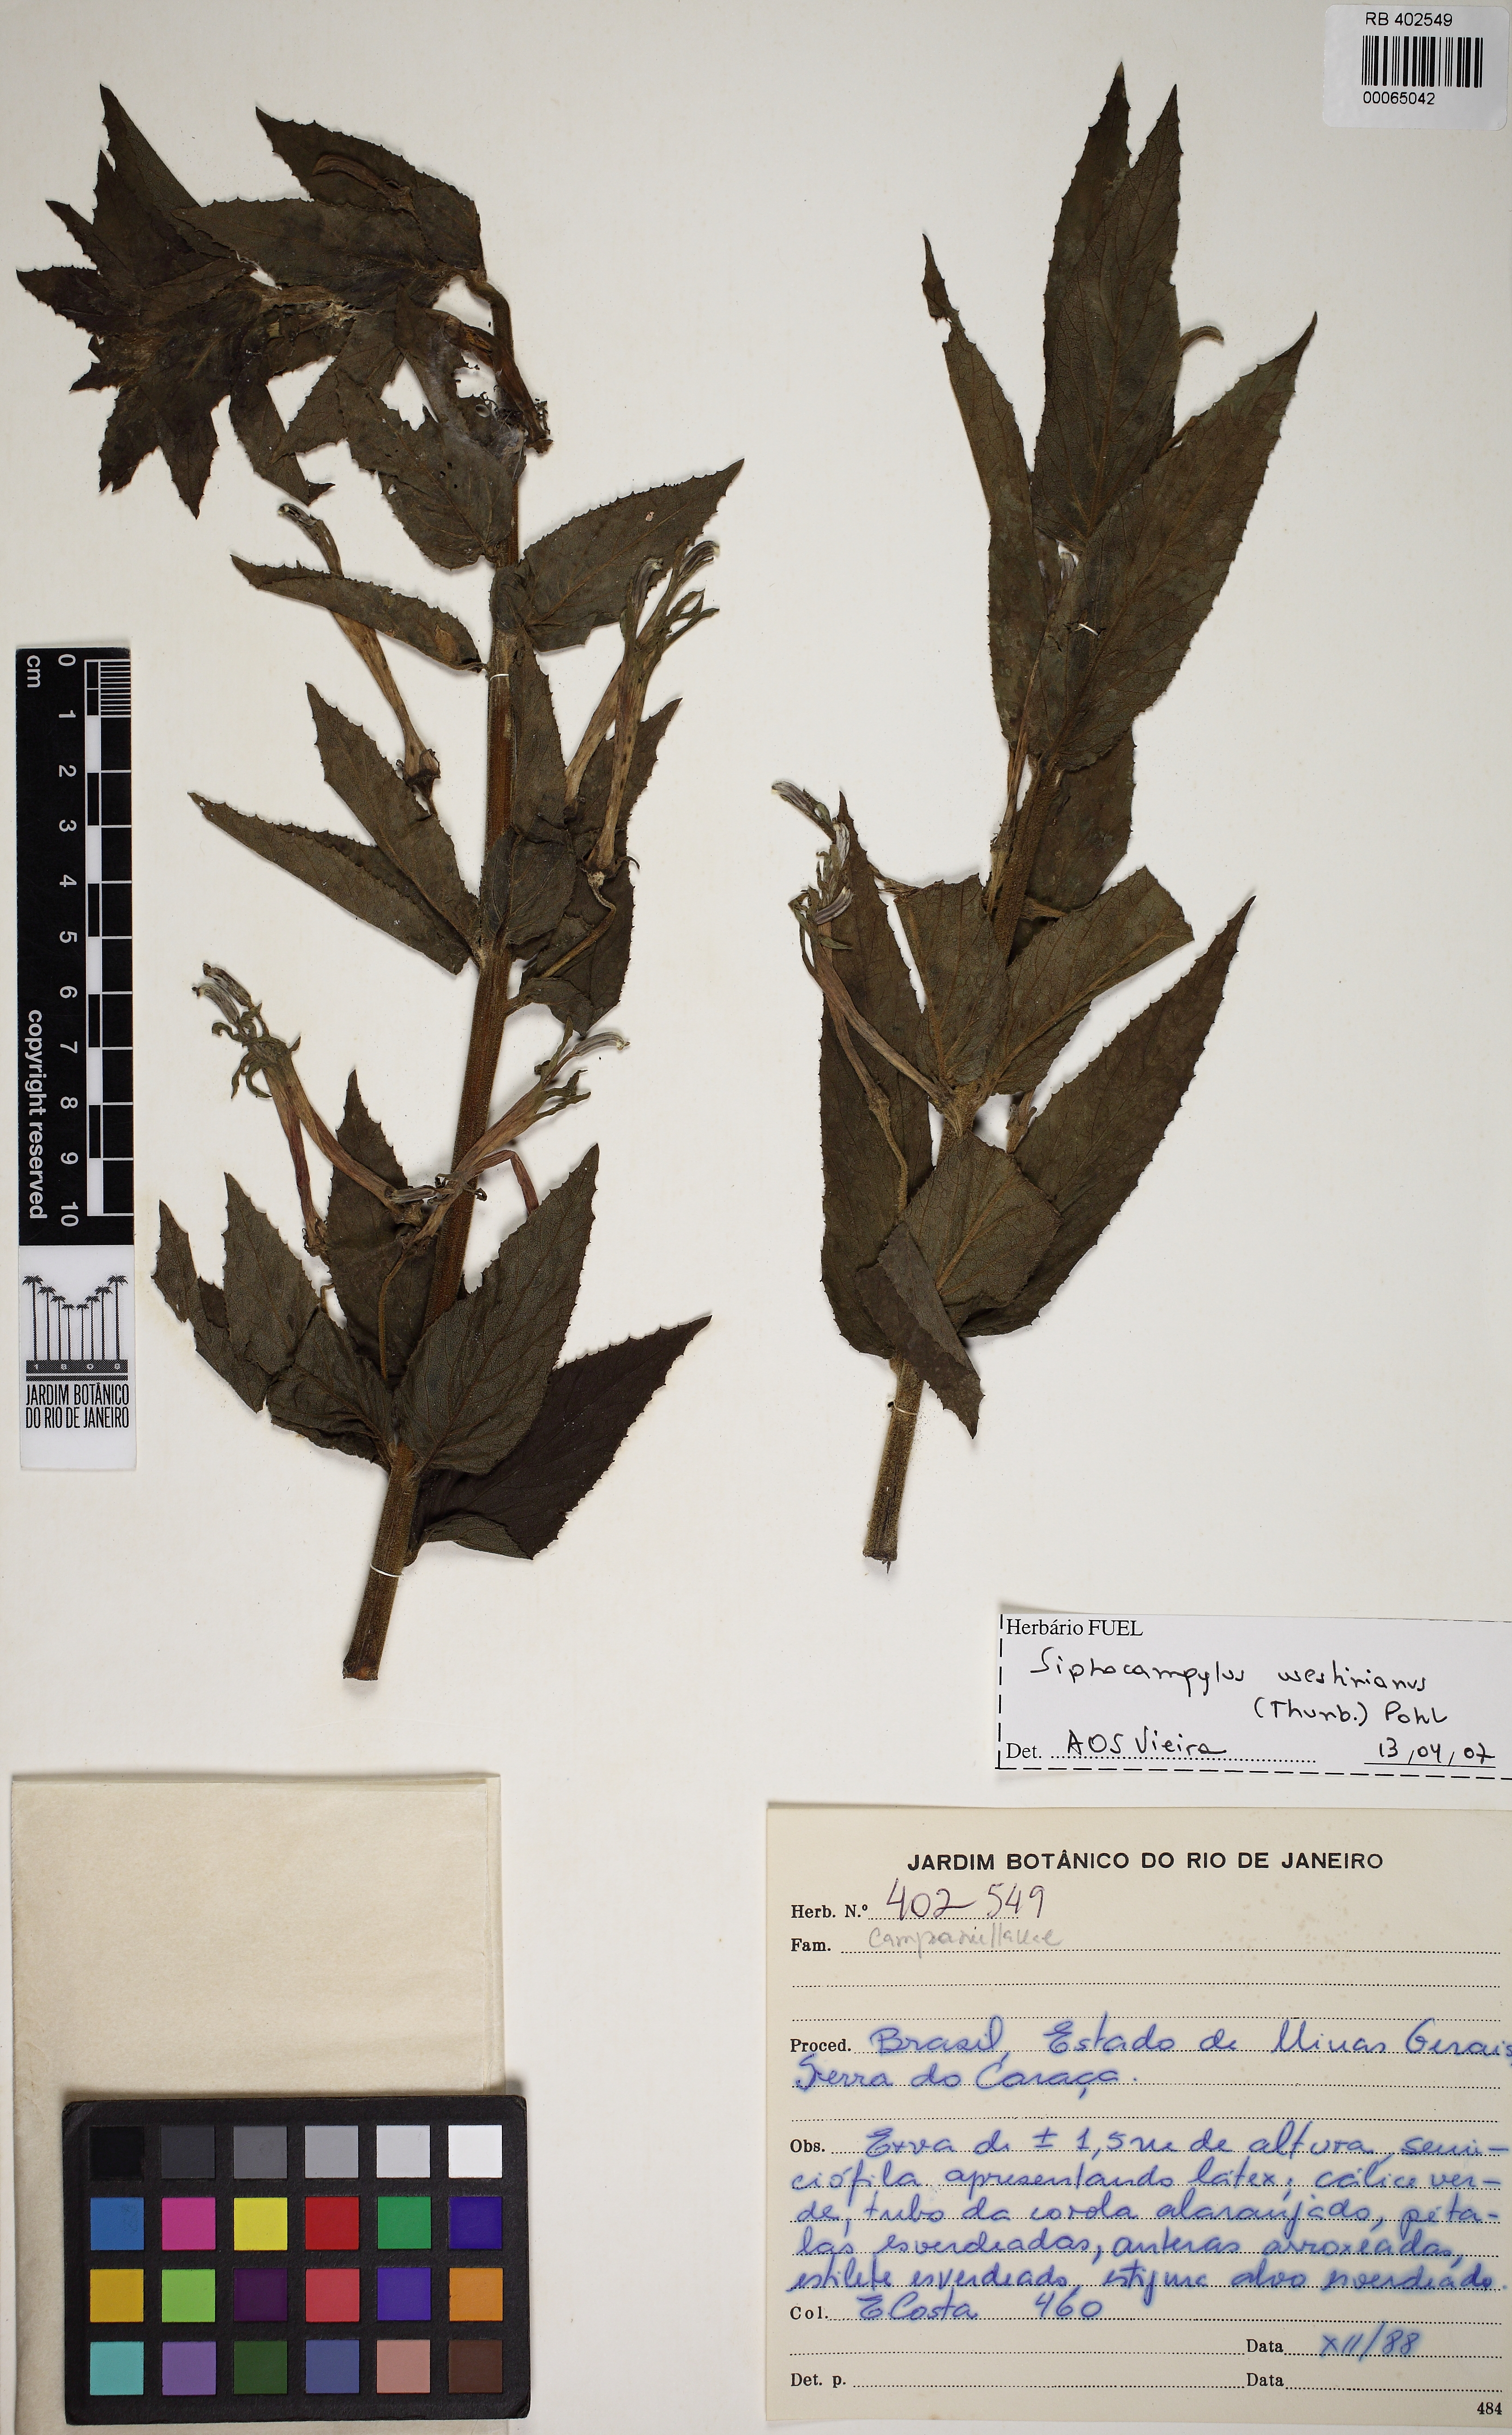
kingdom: Plantae
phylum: Tracheophyta
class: Magnoliopsida
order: Asterales
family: Campanulaceae
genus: Siphocampylus
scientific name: Siphocampylus westinianus
